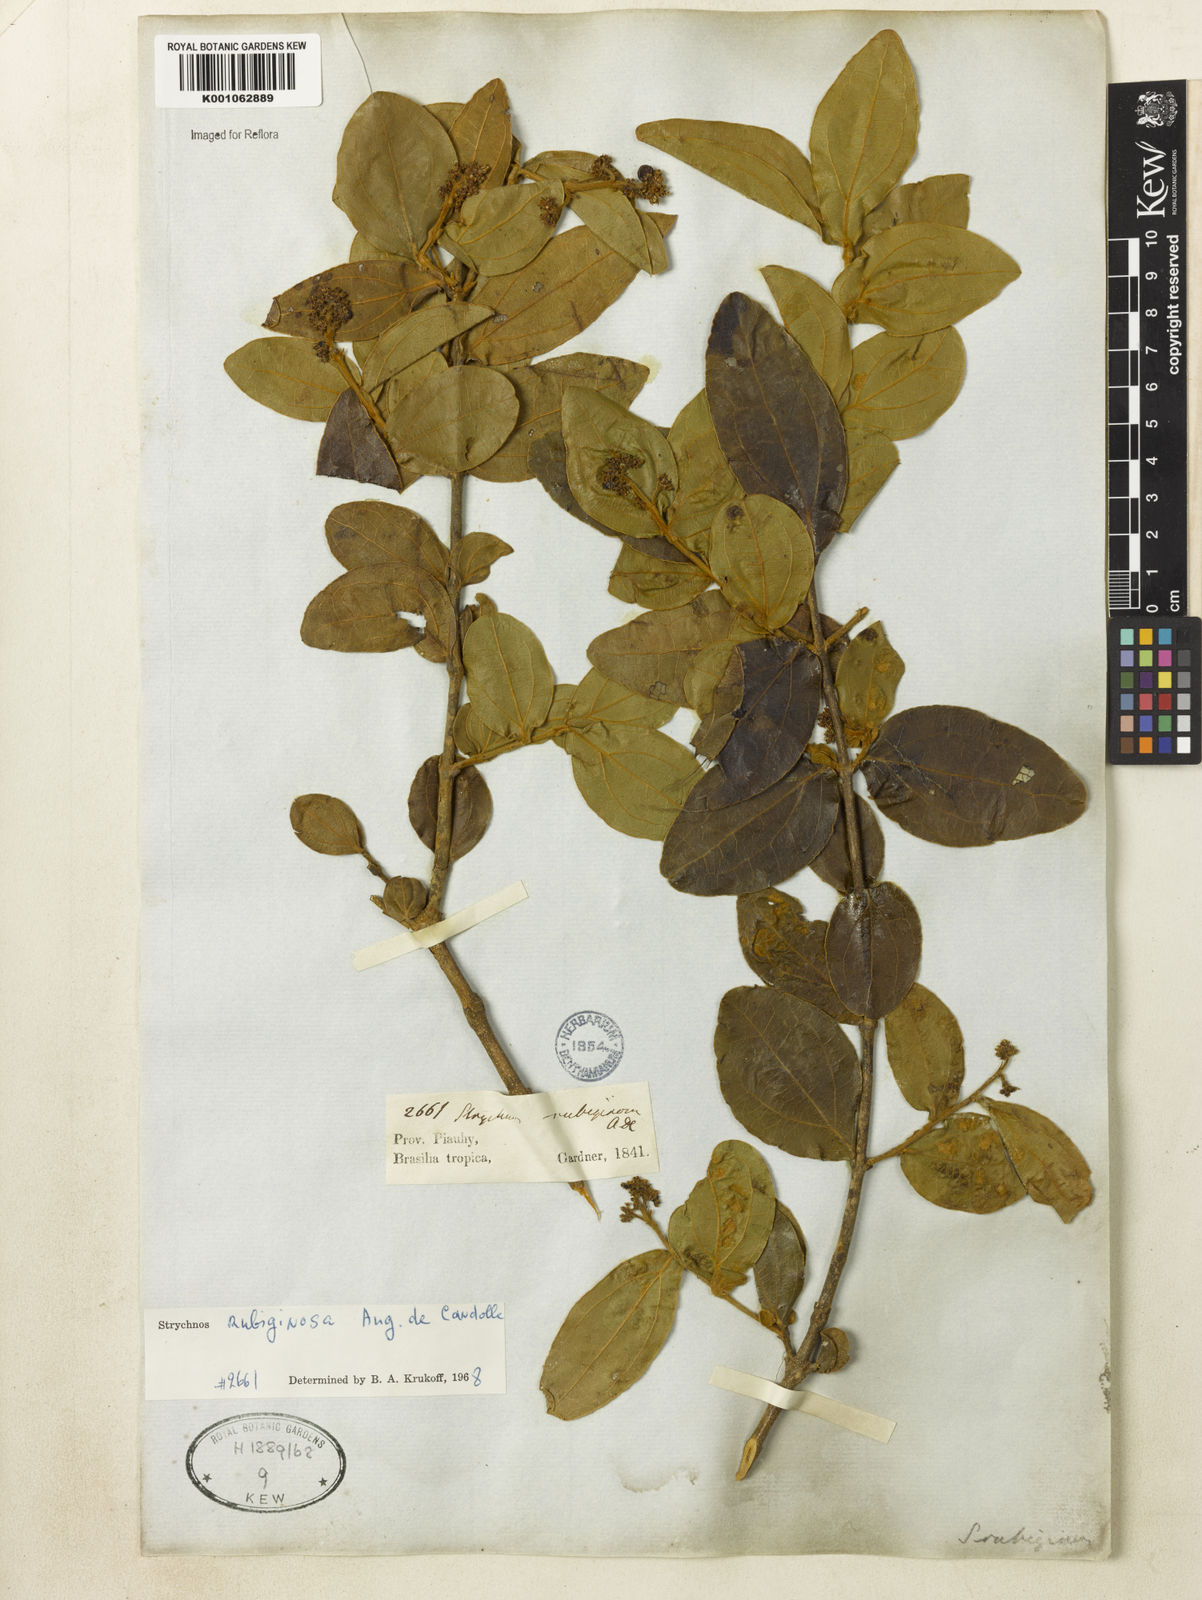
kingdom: Plantae
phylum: Tracheophyta
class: Magnoliopsida
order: Gentianales
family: Loganiaceae
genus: Strychnos
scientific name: Strychnos rubiginosa
